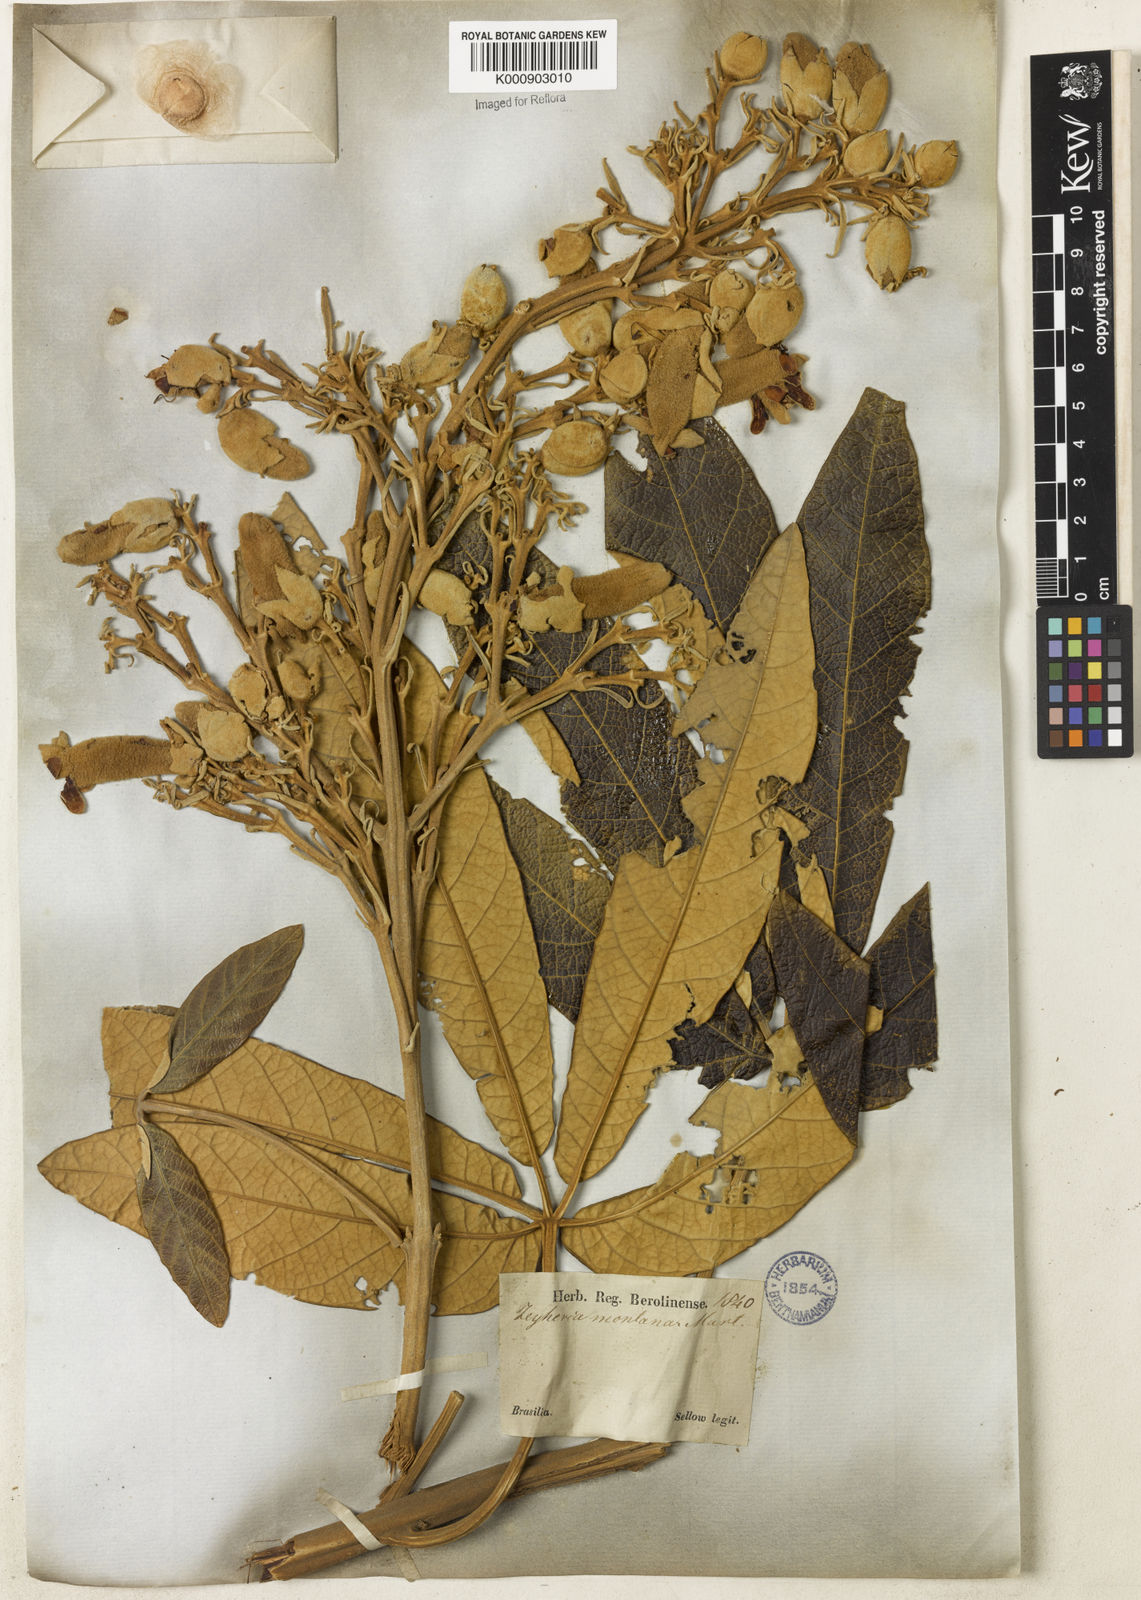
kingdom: Plantae
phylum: Tracheophyta
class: Magnoliopsida
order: Lamiales
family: Bignoniaceae
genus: Zeyheria
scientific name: Zeyheria montana
